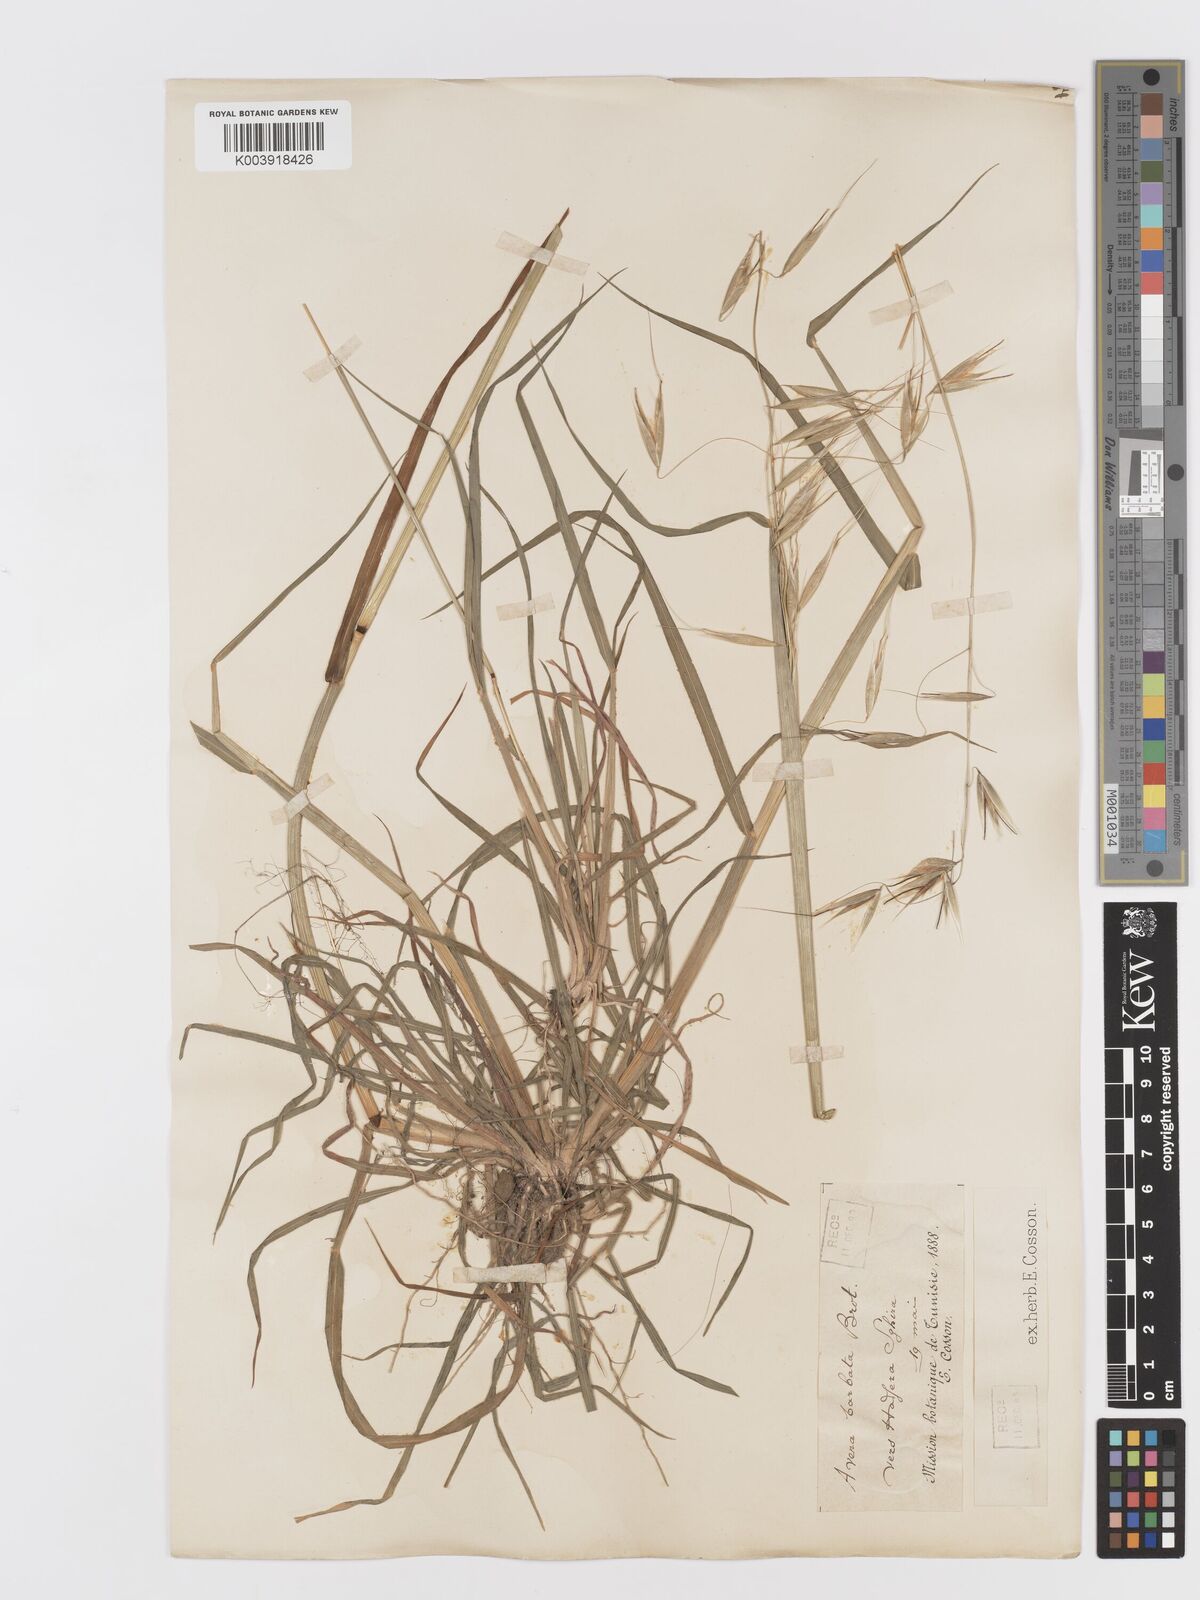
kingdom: Plantae
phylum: Tracheophyta
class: Liliopsida
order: Poales
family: Poaceae
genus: Avena
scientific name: Avena
